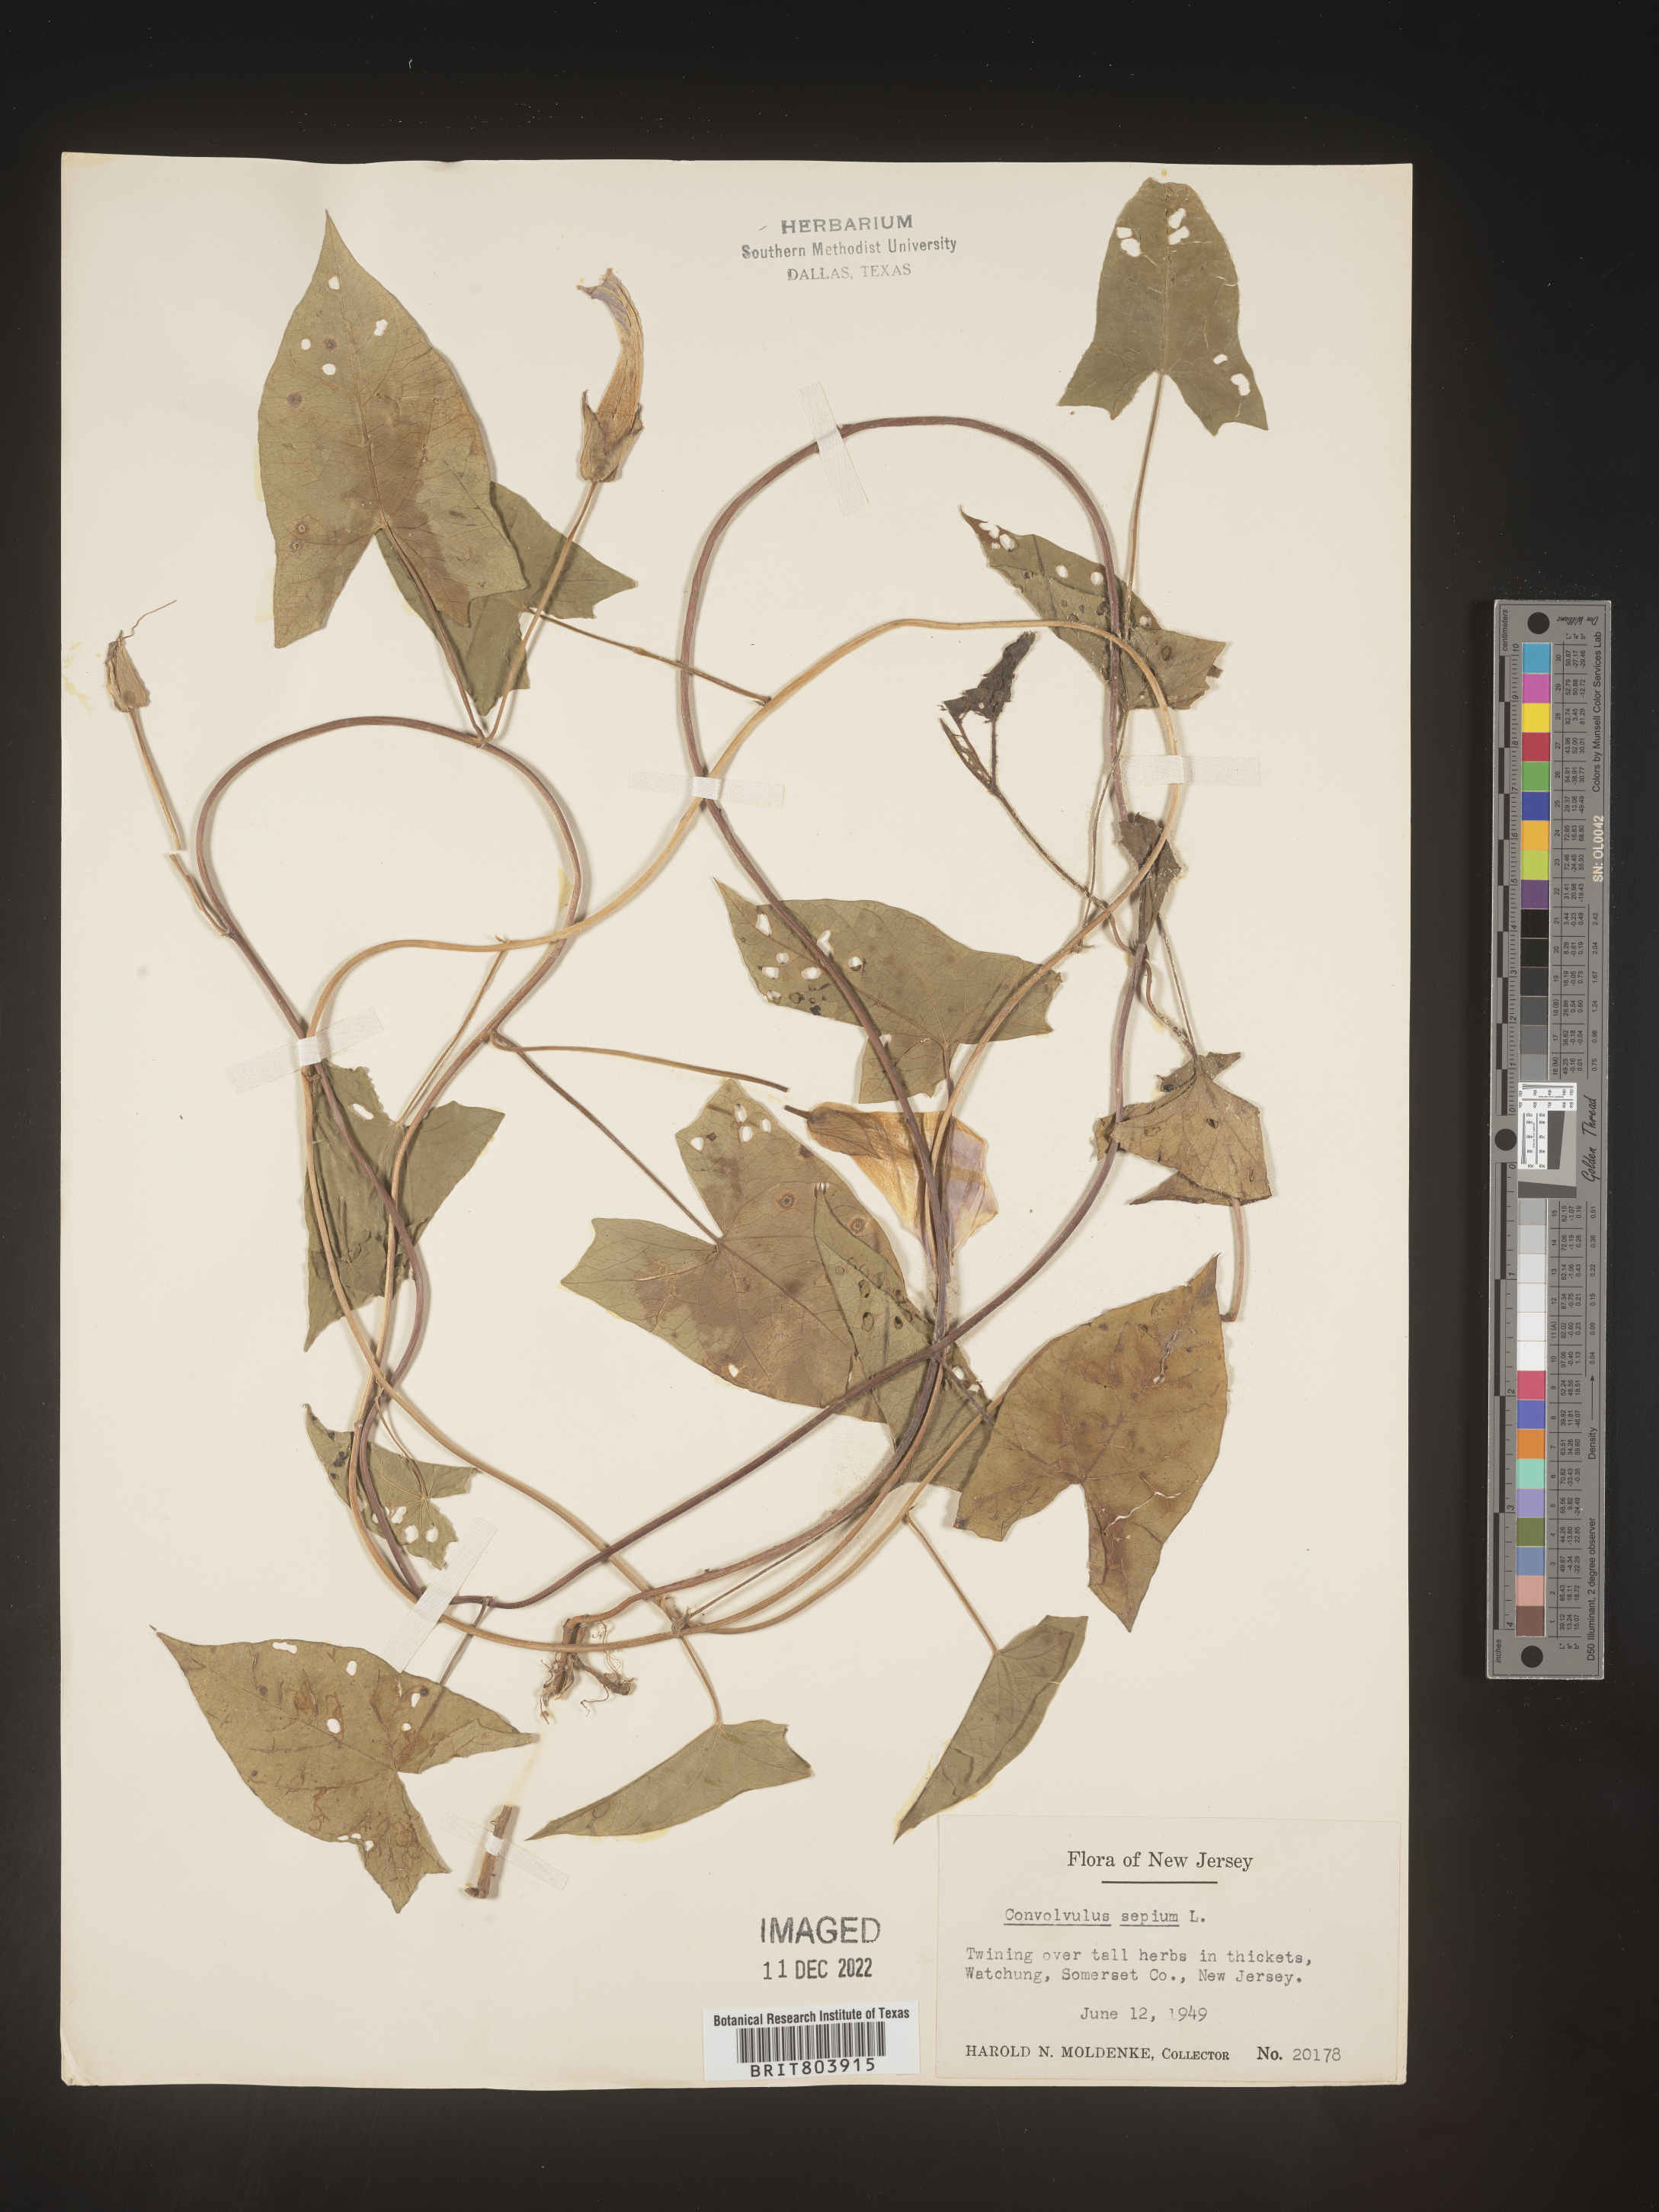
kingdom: Plantae
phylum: Tracheophyta
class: Magnoliopsida
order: Solanales
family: Convolvulaceae
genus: Calystegia
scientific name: Calystegia sepium
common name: Hedge bindweed
